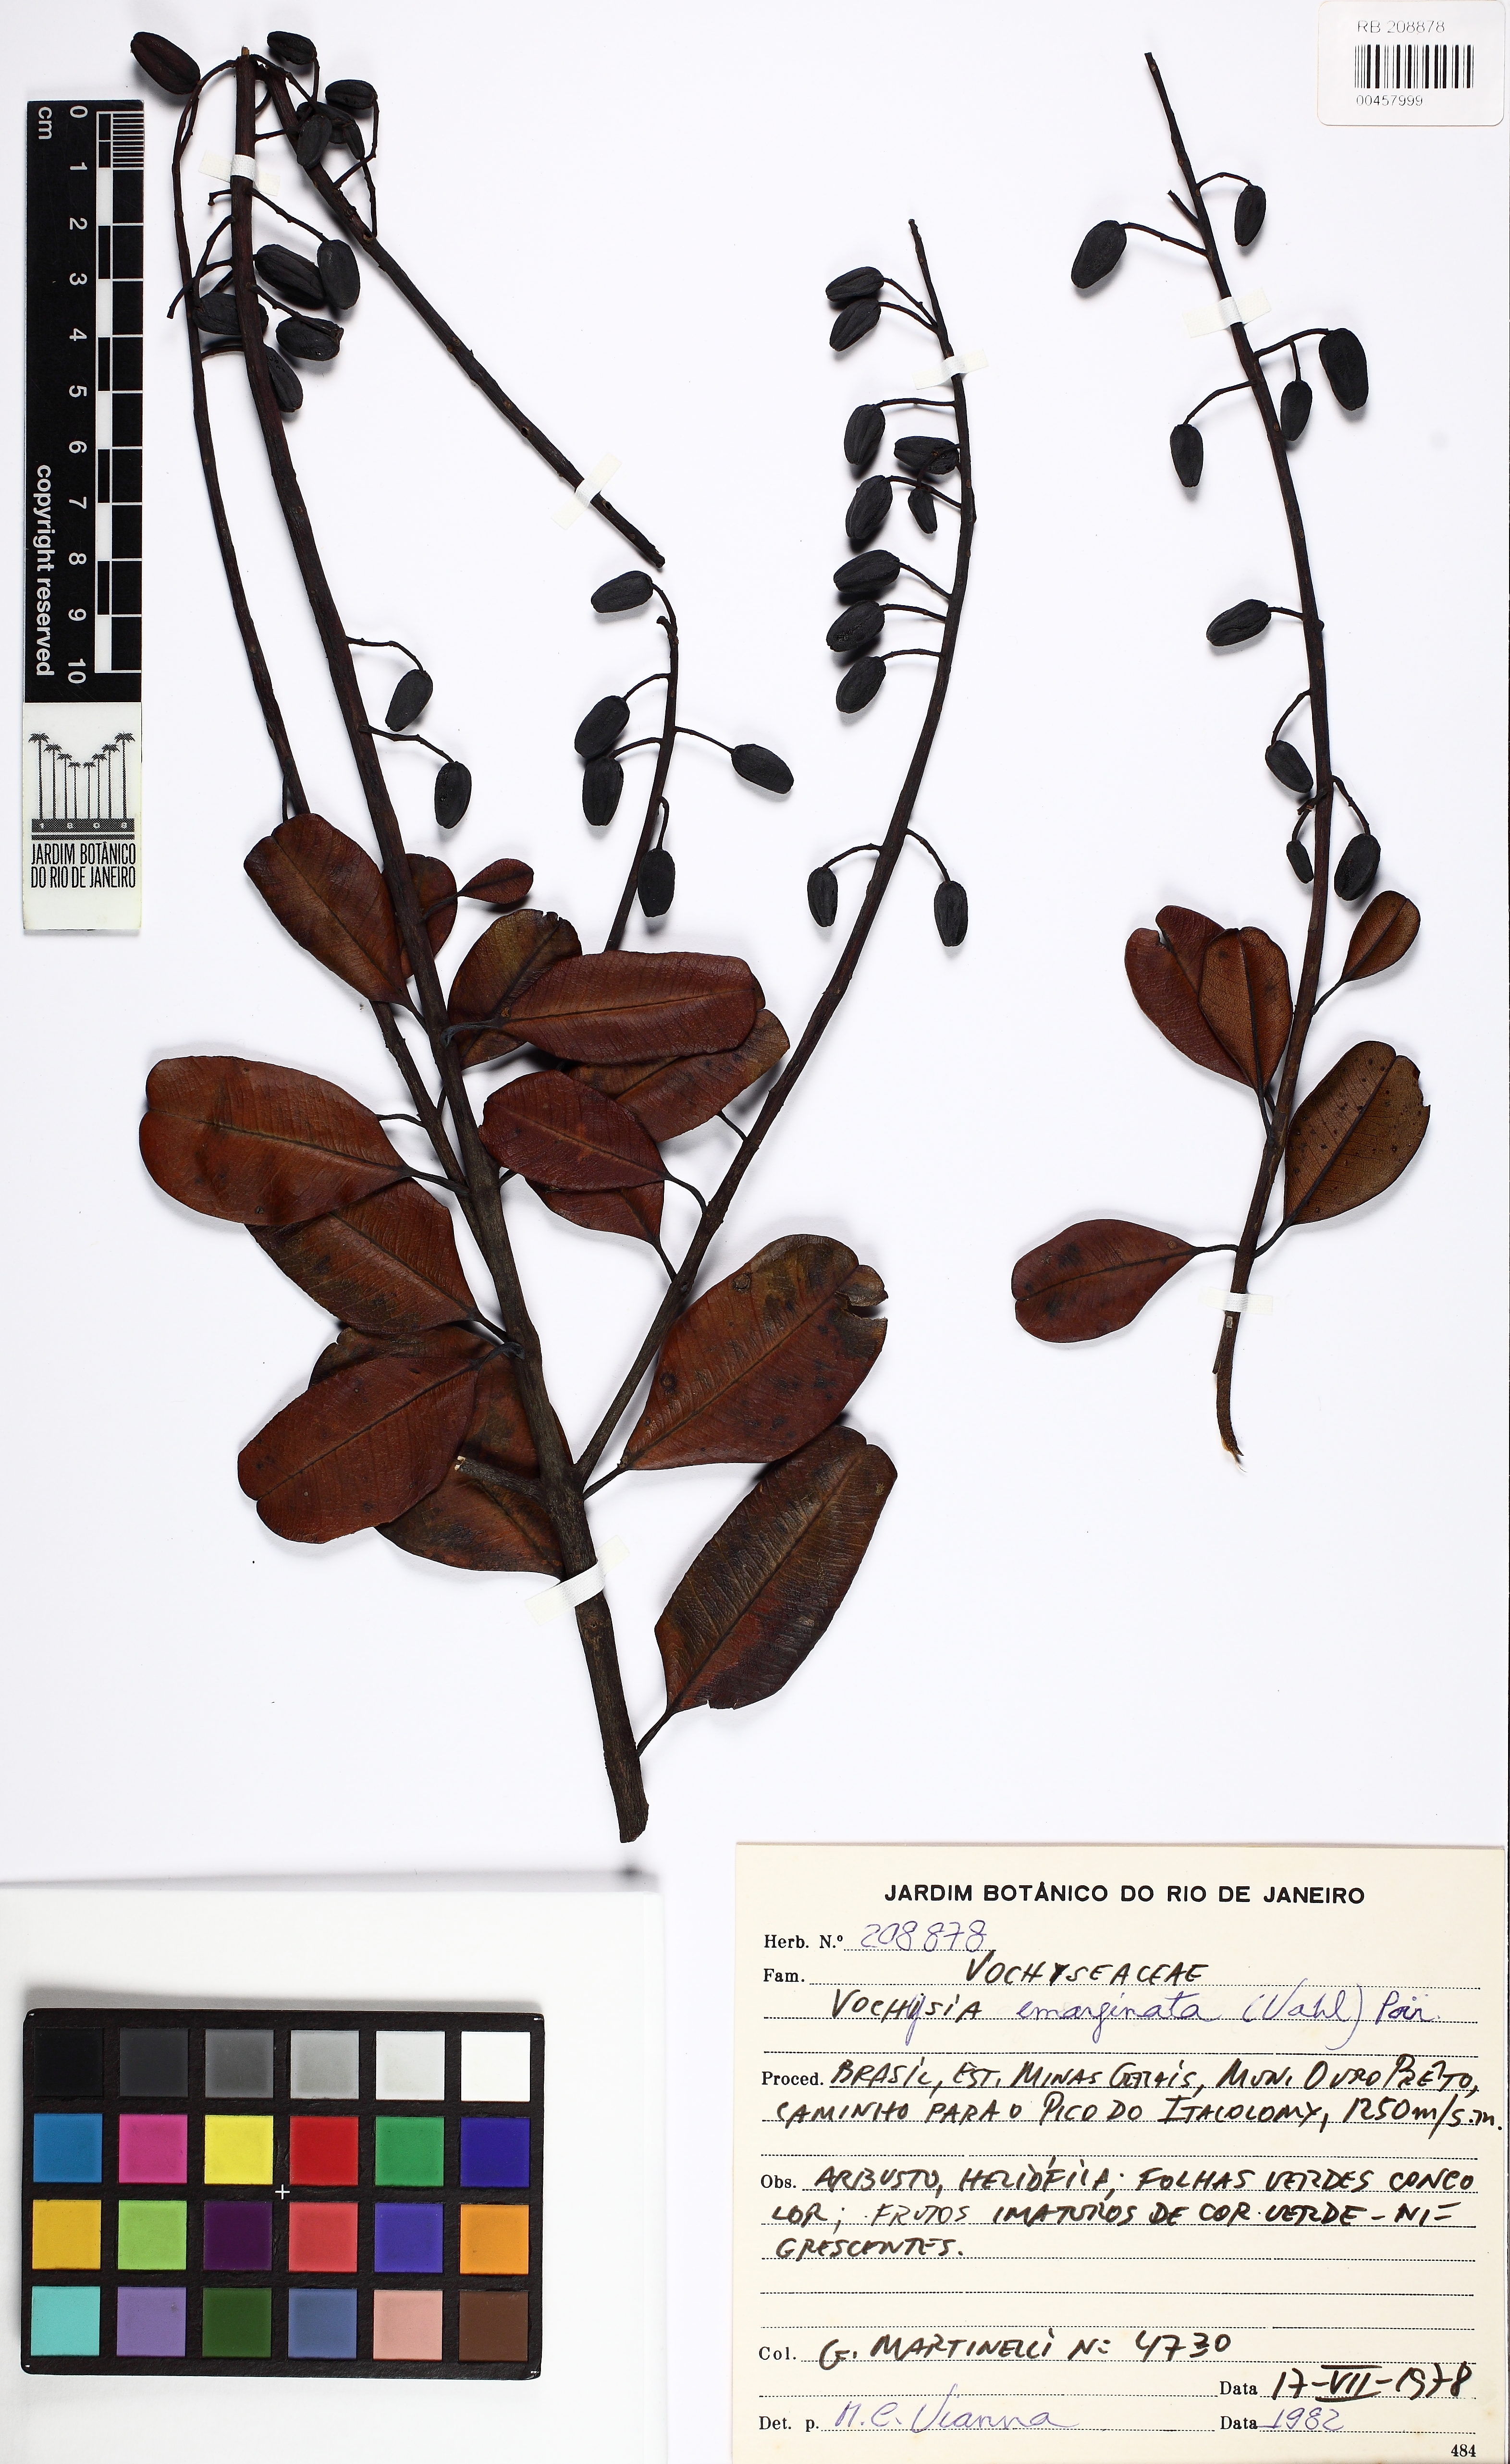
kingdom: Plantae
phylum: Tracheophyta
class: Magnoliopsida
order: Myrtales
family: Vochysiaceae
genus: Vochysia
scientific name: Vochysia emarginata
